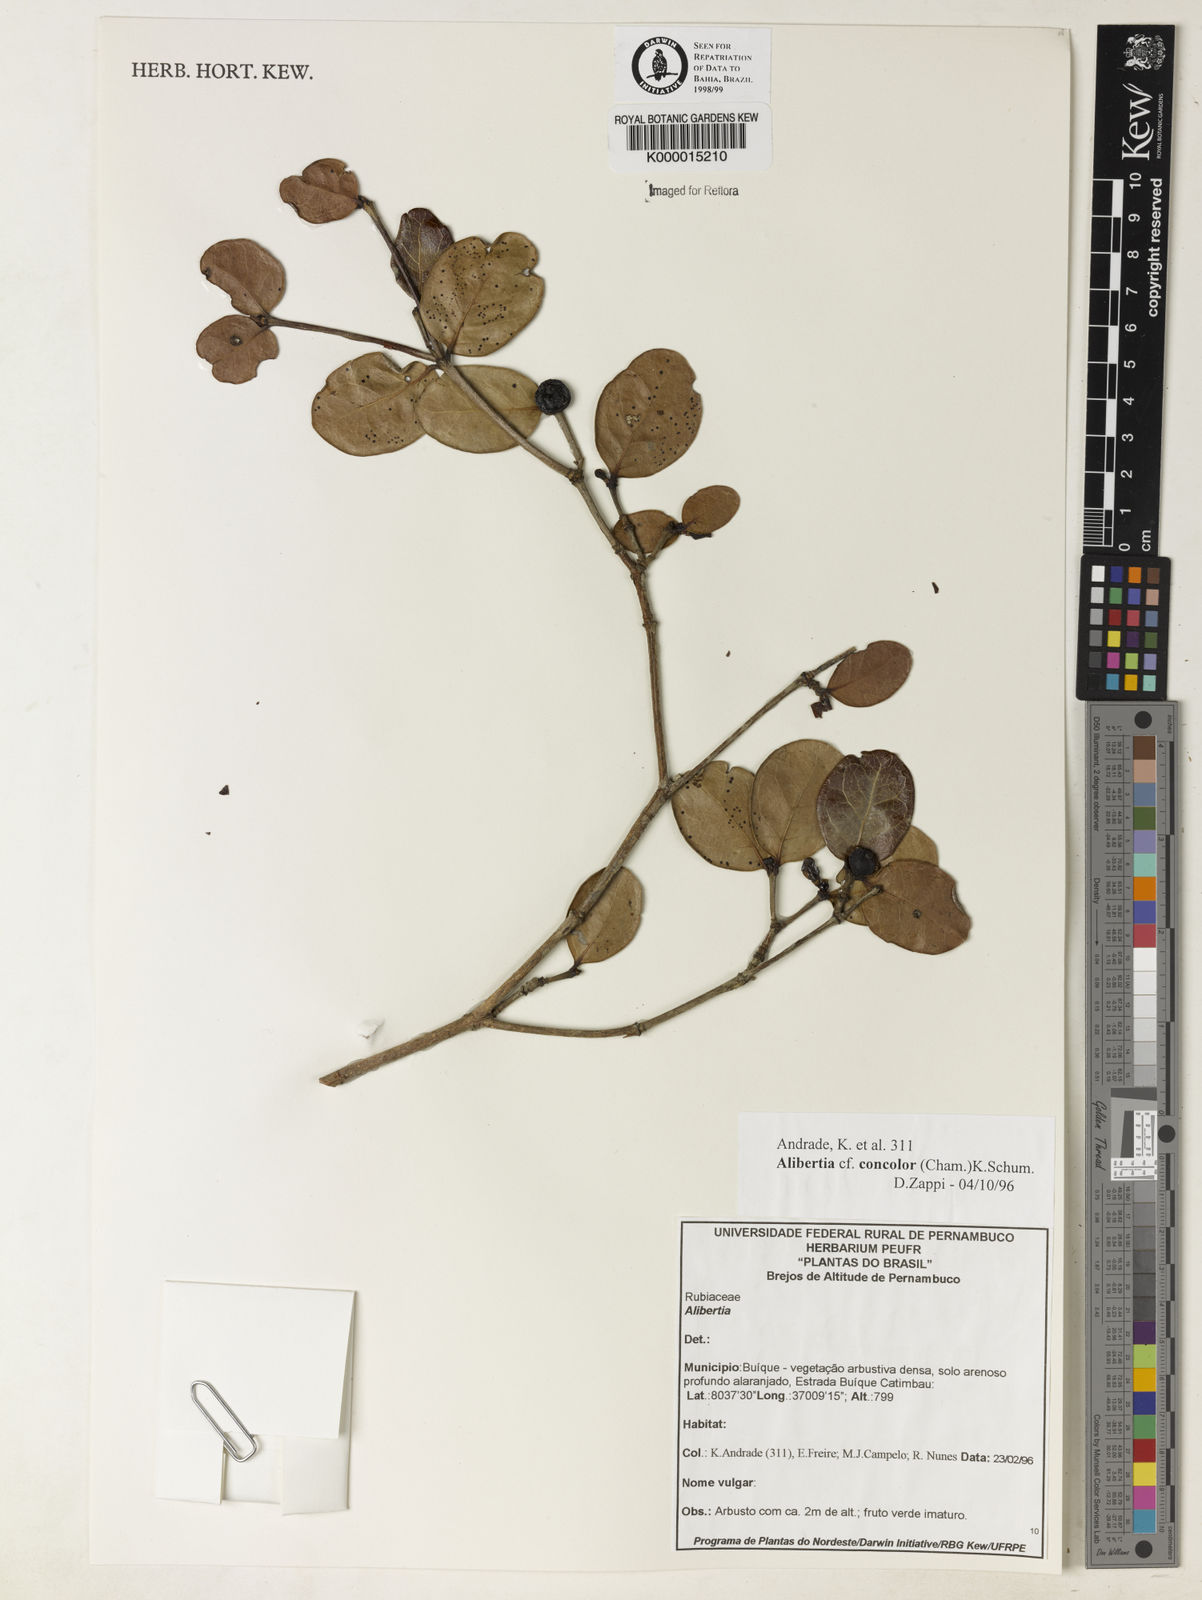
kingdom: Plantae
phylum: Tracheophyta
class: Magnoliopsida
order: Gentianales
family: Rubiaceae
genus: Cordiera
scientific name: Cordiera concolor
